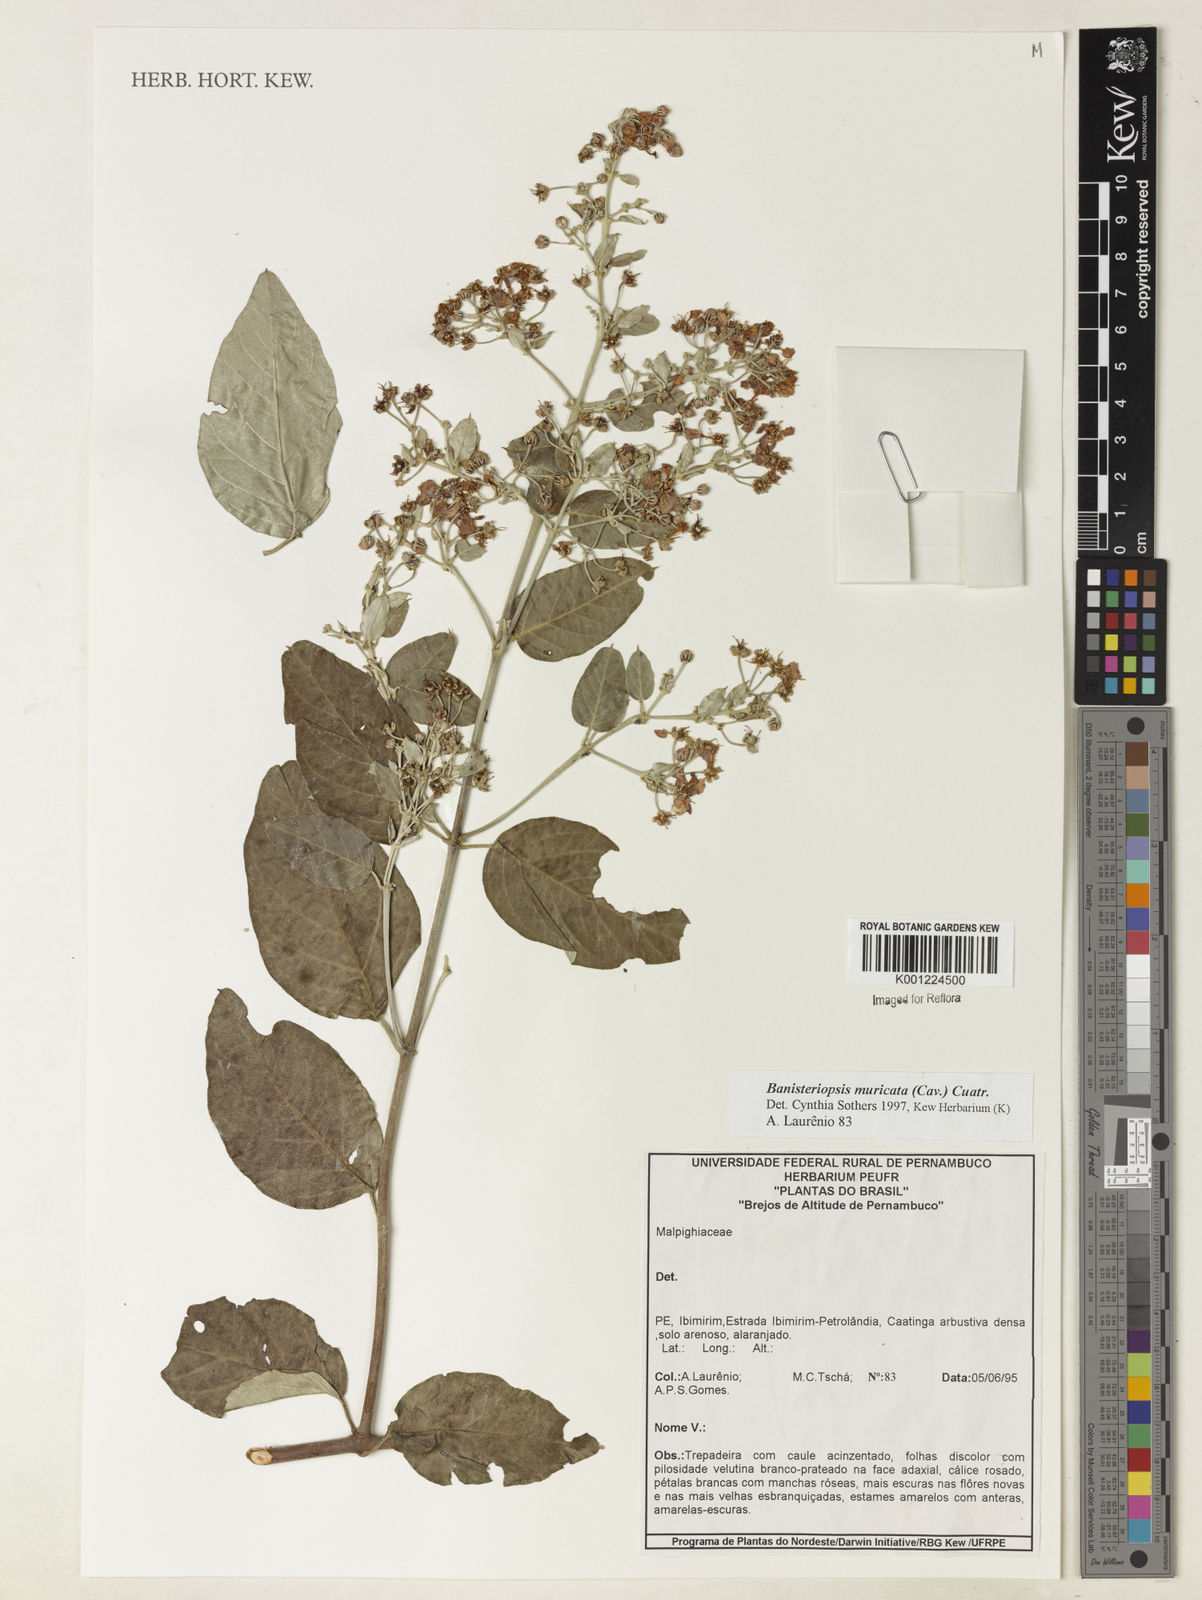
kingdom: Plantae
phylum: Tracheophyta
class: Magnoliopsida
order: Malpighiales
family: Malpighiaceae
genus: Banisteriopsis
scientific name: Banisteriopsis muricata
